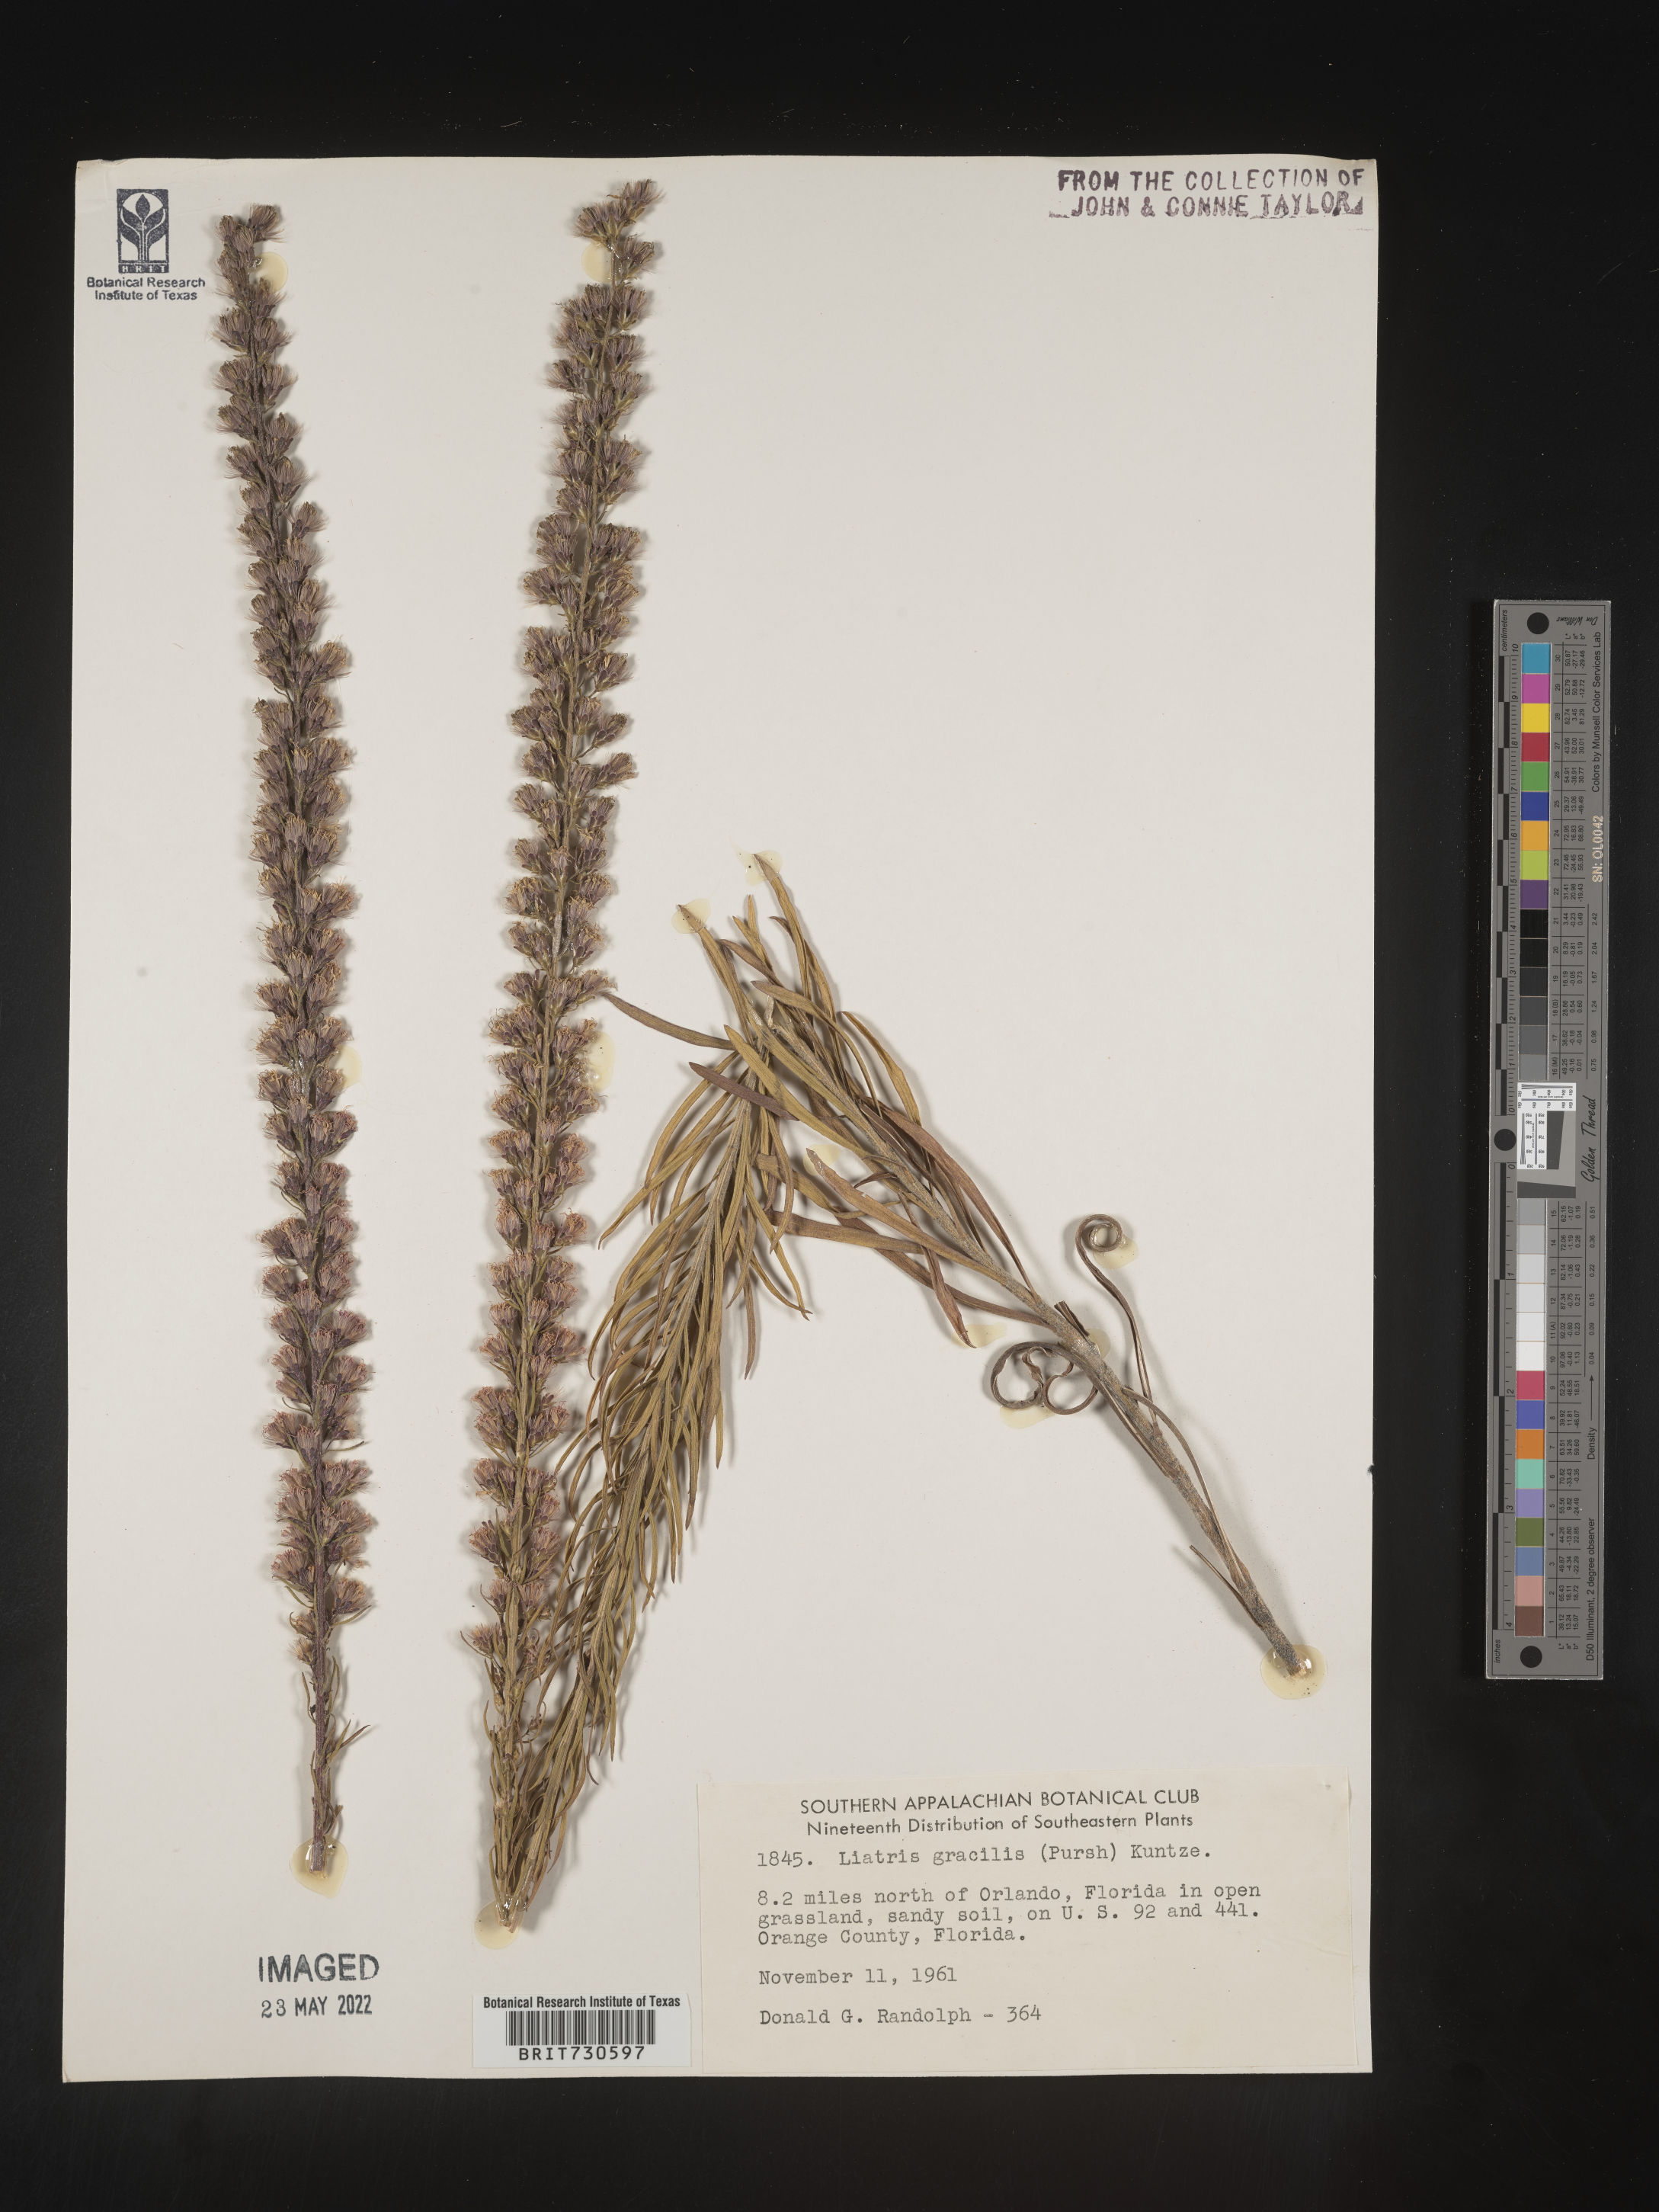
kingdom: Plantae
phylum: Tracheophyta
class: Magnoliopsida
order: Asterales
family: Asteraceae
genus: Liatris
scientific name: Liatris gracilis
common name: Slender gayfeather
